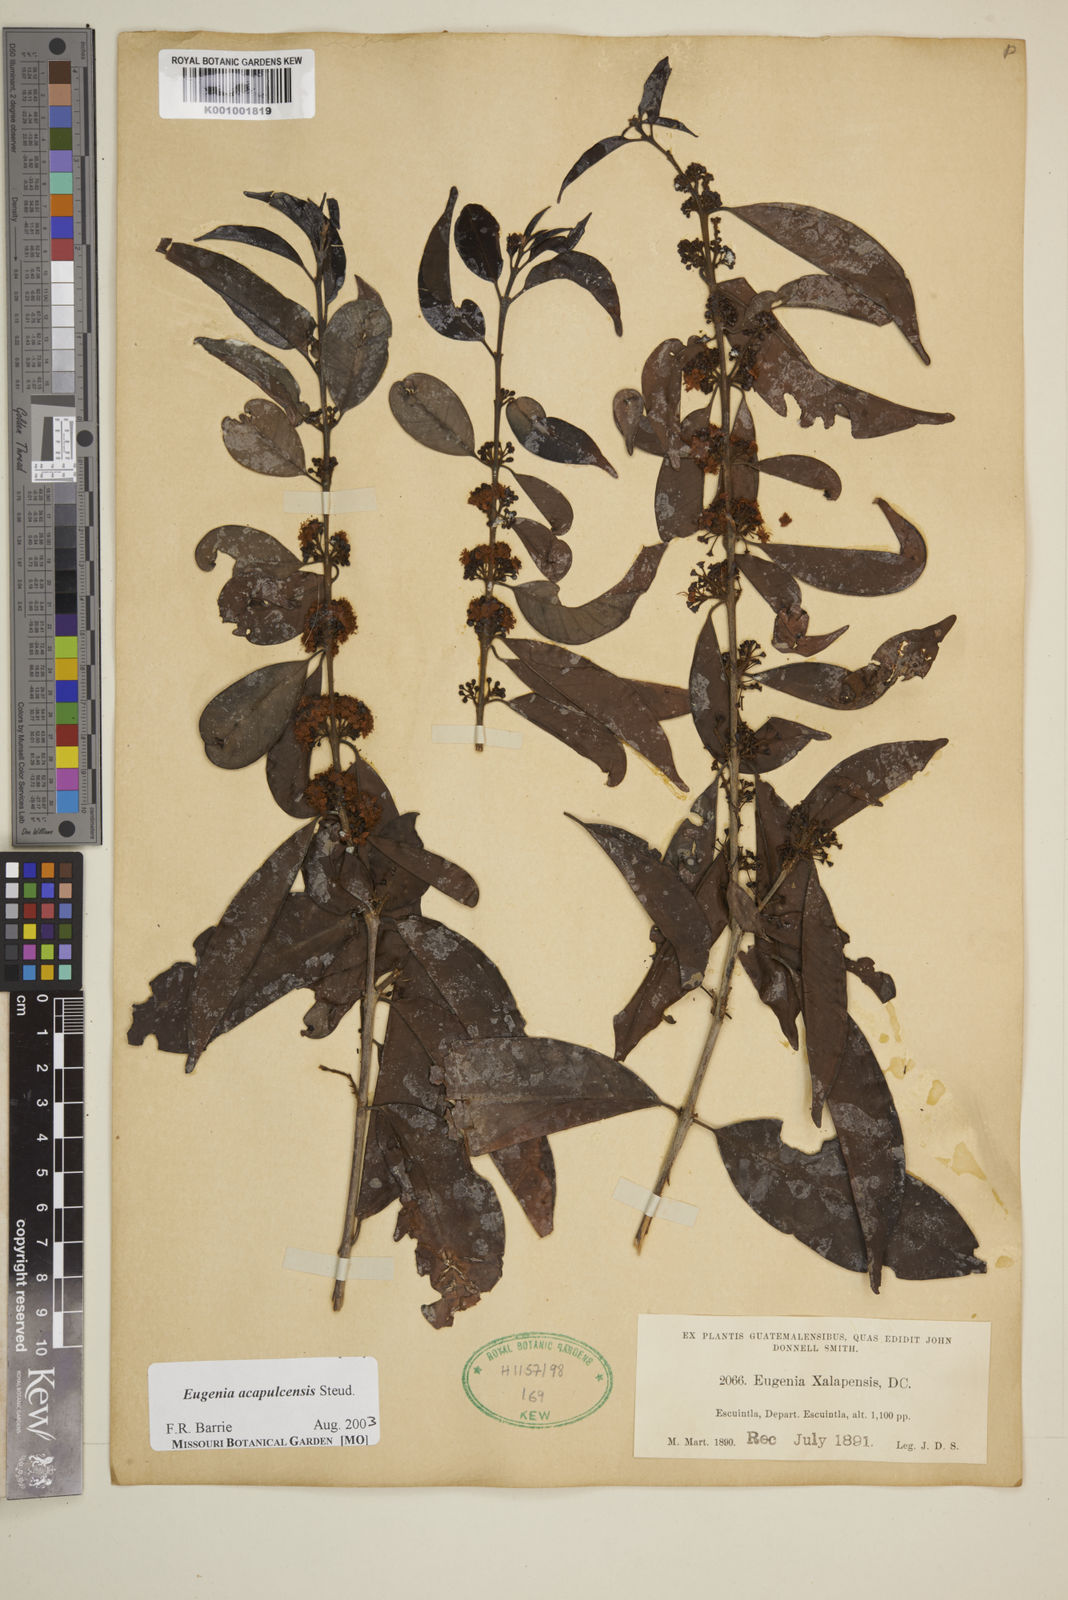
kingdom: Plantae
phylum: Tracheophyta
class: Magnoliopsida
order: Myrtales
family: Myrtaceae
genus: Eugenia
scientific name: Eugenia acapulcensis
